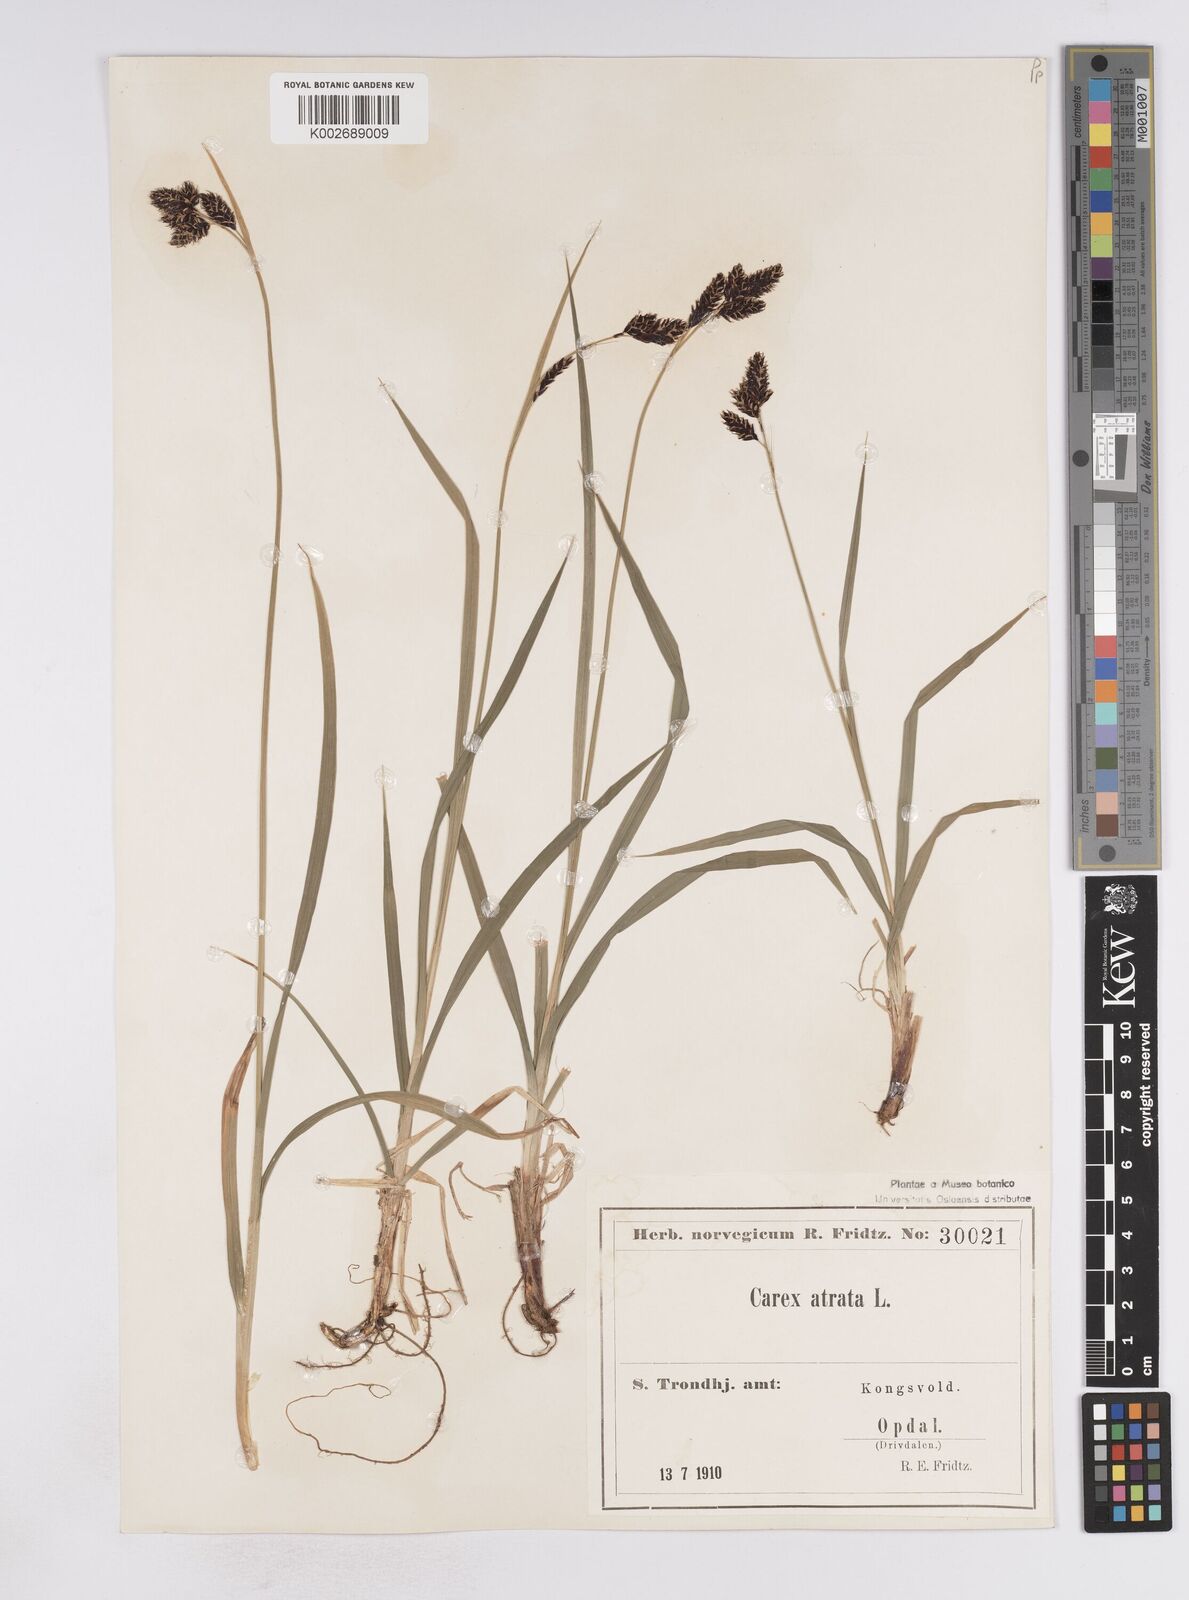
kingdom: Plantae
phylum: Tracheophyta
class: Liliopsida
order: Poales
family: Cyperaceae
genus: Carex
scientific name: Carex atrata
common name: Black alpine sedge
